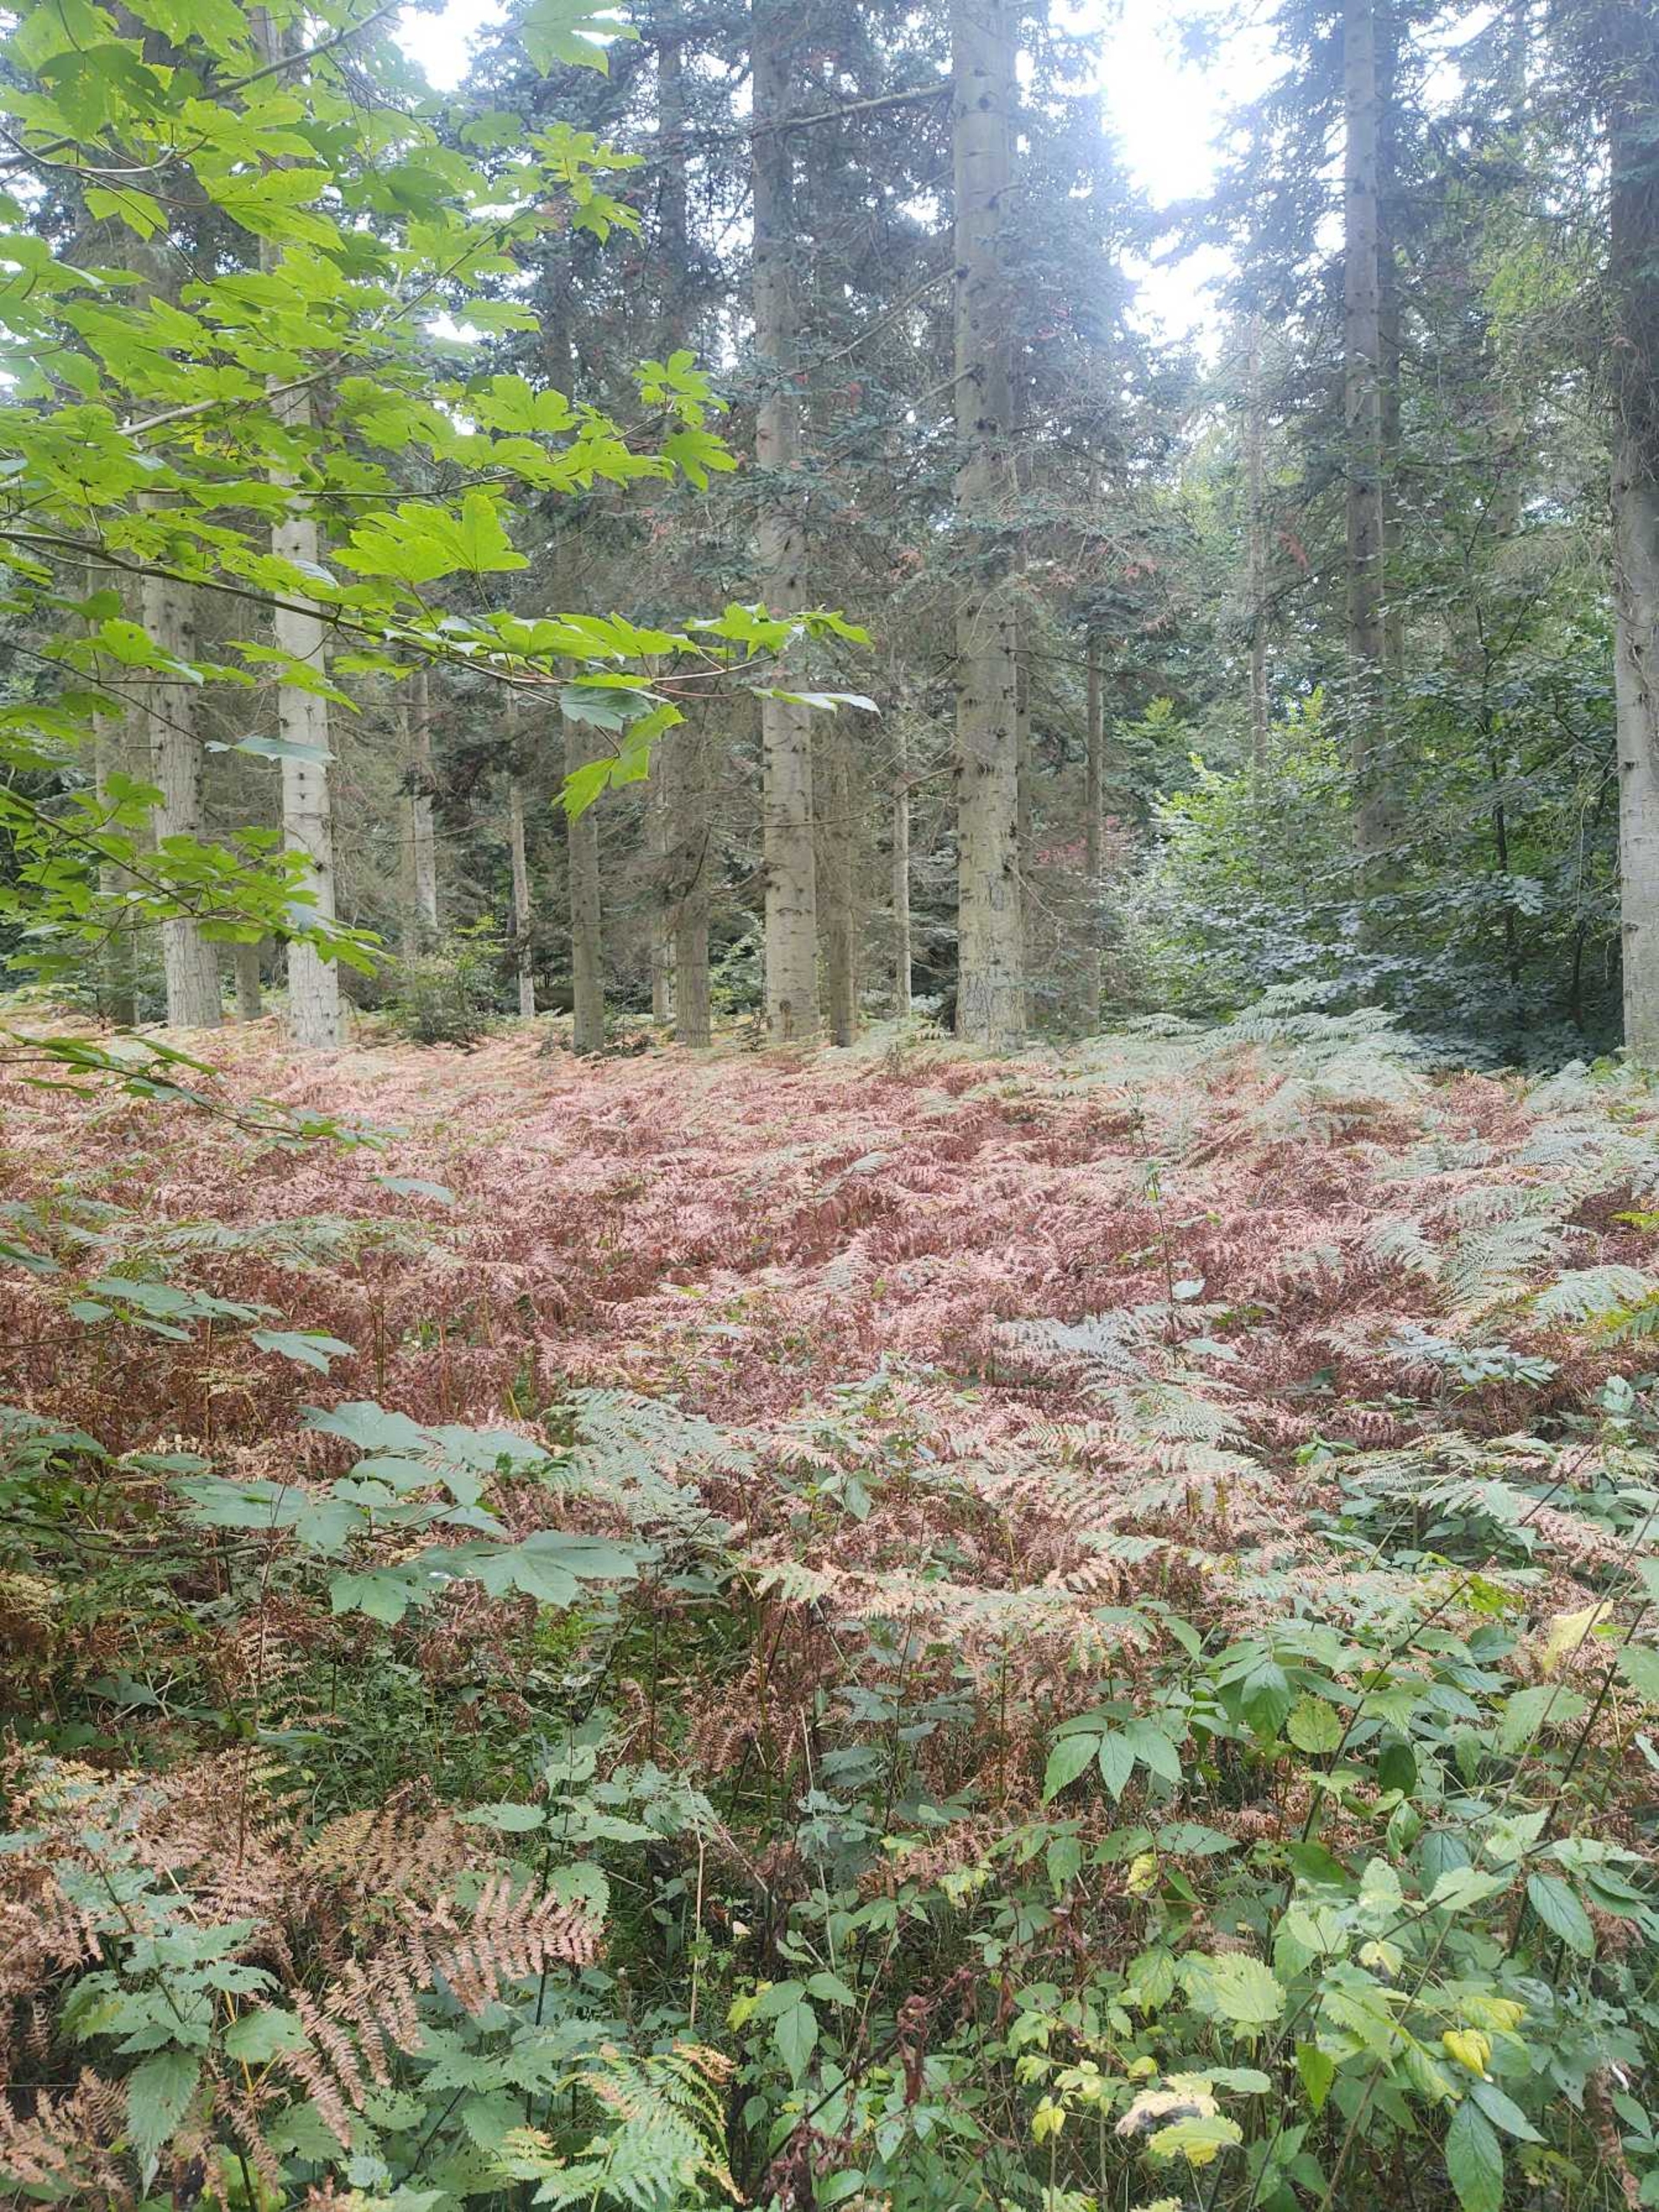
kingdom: Plantae
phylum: Tracheophyta
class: Polypodiopsida
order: Polypodiales
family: Dennstaedtiaceae
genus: Pteridium
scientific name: Pteridium aquilinum
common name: Ørnebregne
